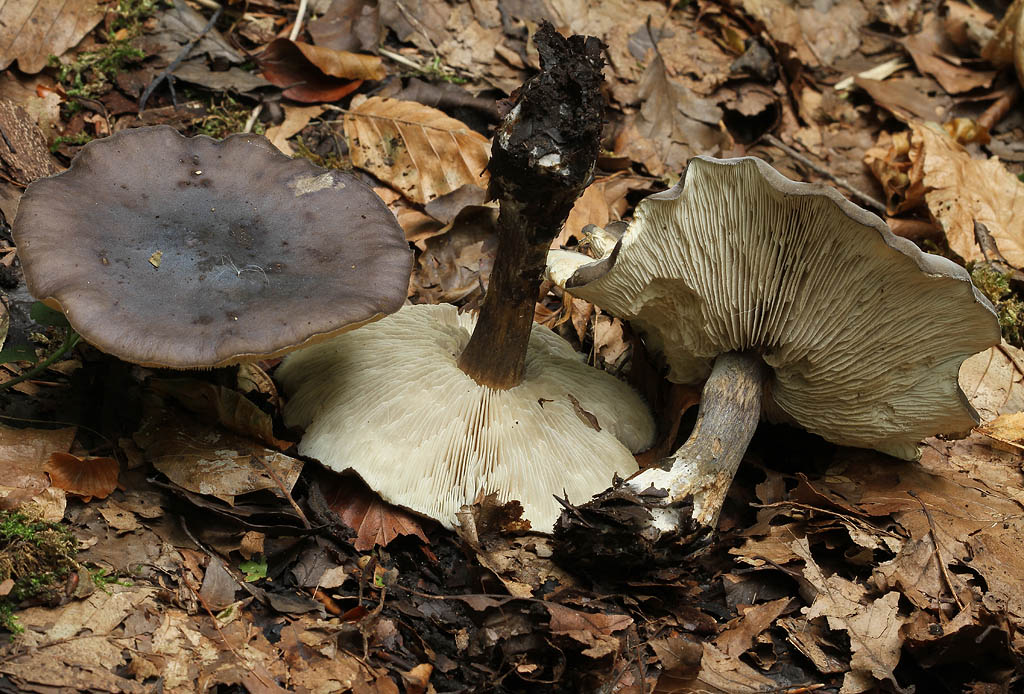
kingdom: Fungi
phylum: Basidiomycota
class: Agaricomycetes
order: Agaricales
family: Tricholomataceae
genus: Melanoleuca
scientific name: Melanoleuca polioleuca
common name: almindelig munkehat
